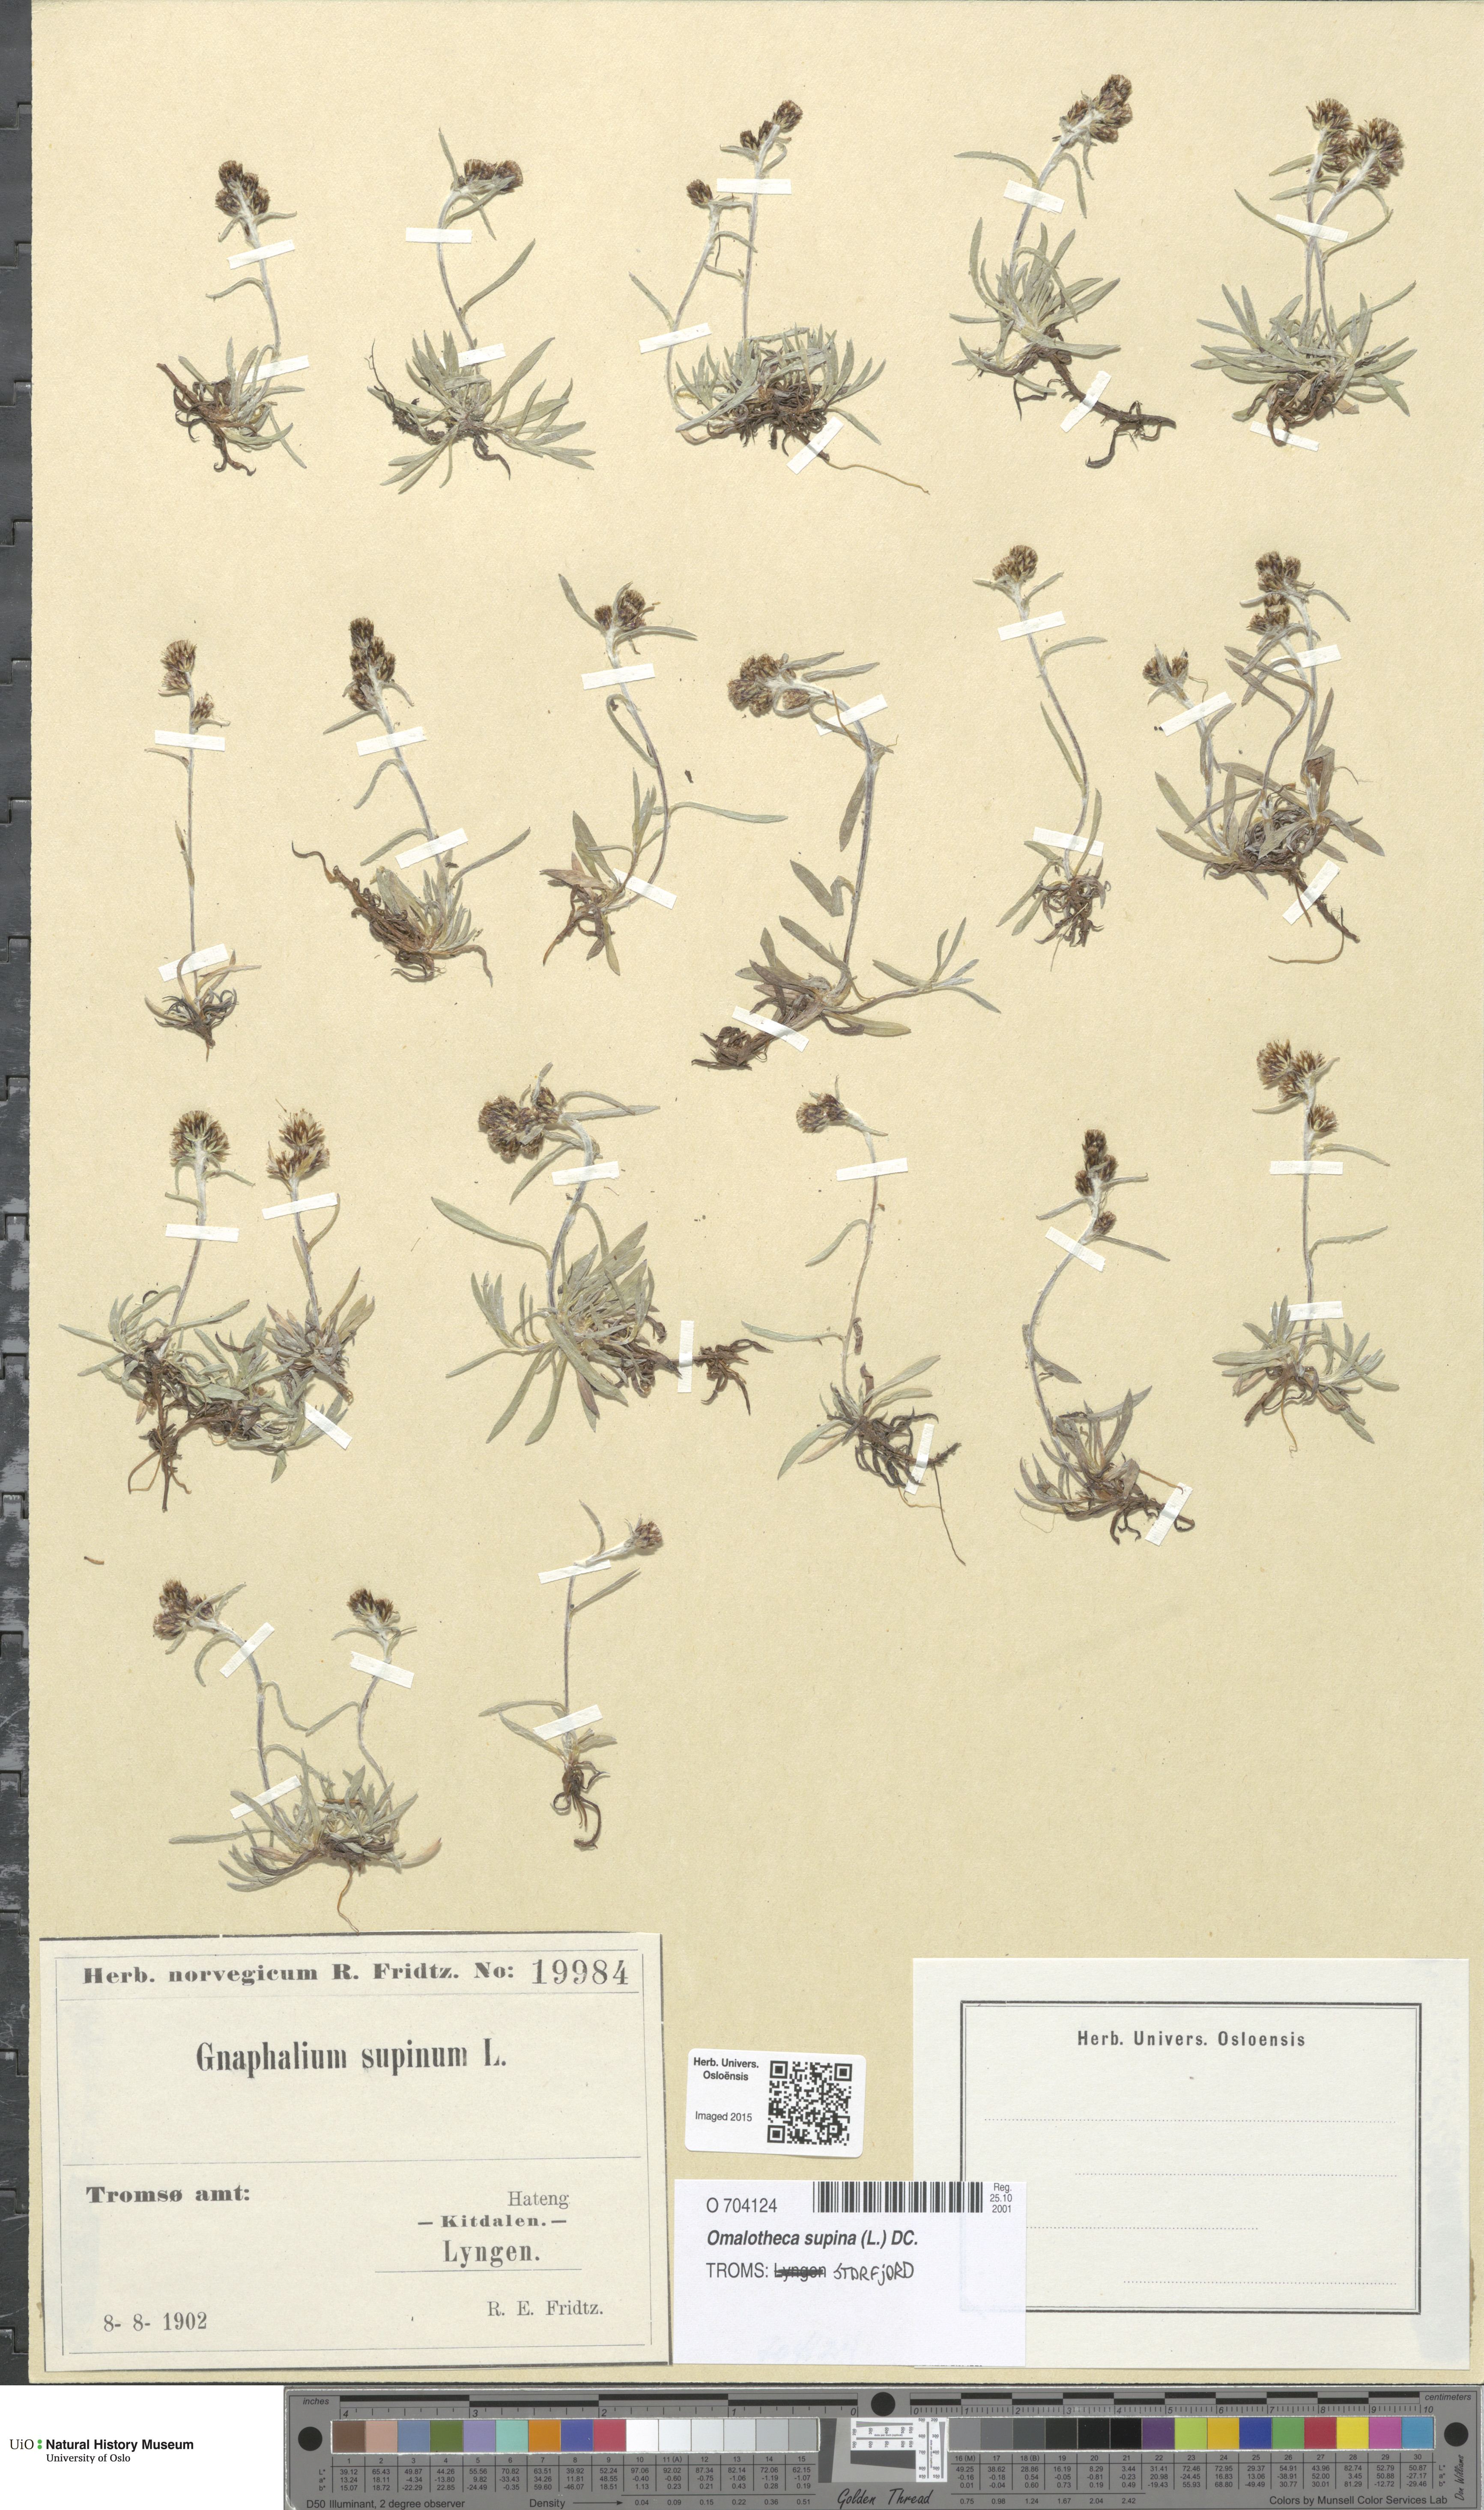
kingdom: Plantae
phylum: Tracheophyta
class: Magnoliopsida
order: Asterales
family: Asteraceae
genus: Omalotheca
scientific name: Omalotheca supina
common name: Alpine arctic-cudweed
